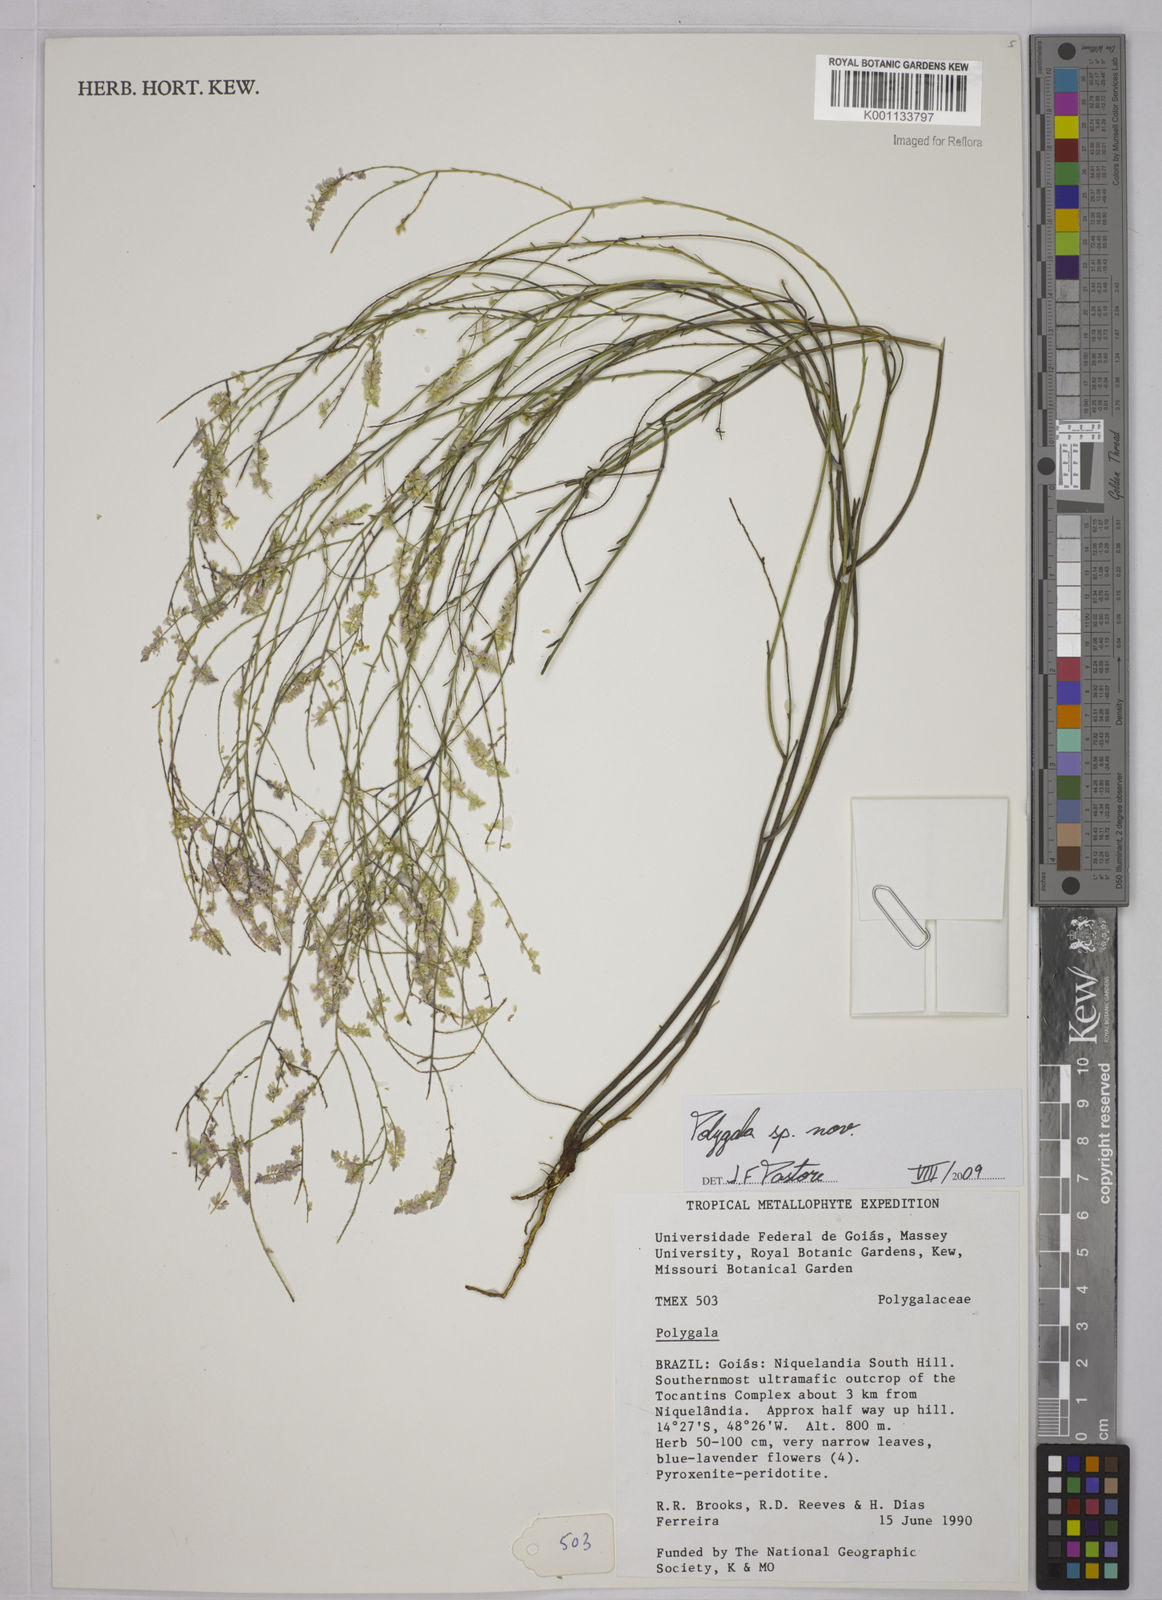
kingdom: Plantae
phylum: Tracheophyta
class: Magnoliopsida
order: Fabales
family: Polygalaceae
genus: Polygala
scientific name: Polygala
